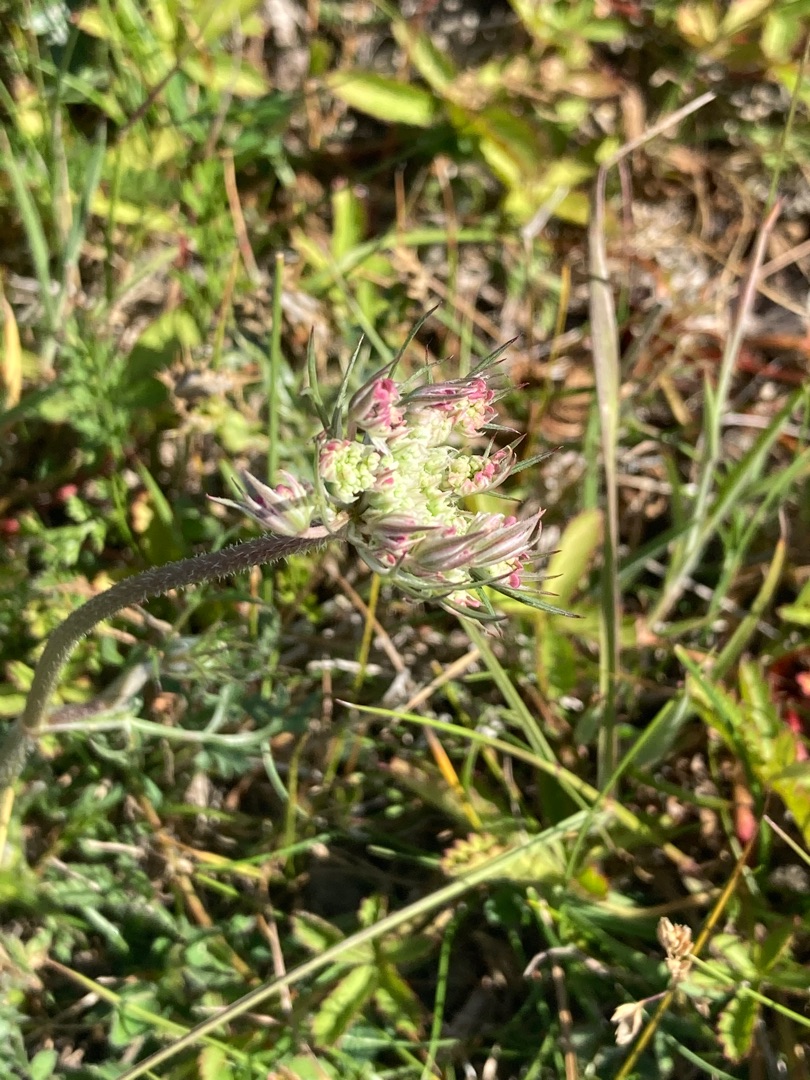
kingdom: Plantae
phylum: Tracheophyta
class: Magnoliopsida
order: Apiales
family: Apiaceae
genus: Daucus
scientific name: Daucus carota
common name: Gulerod
